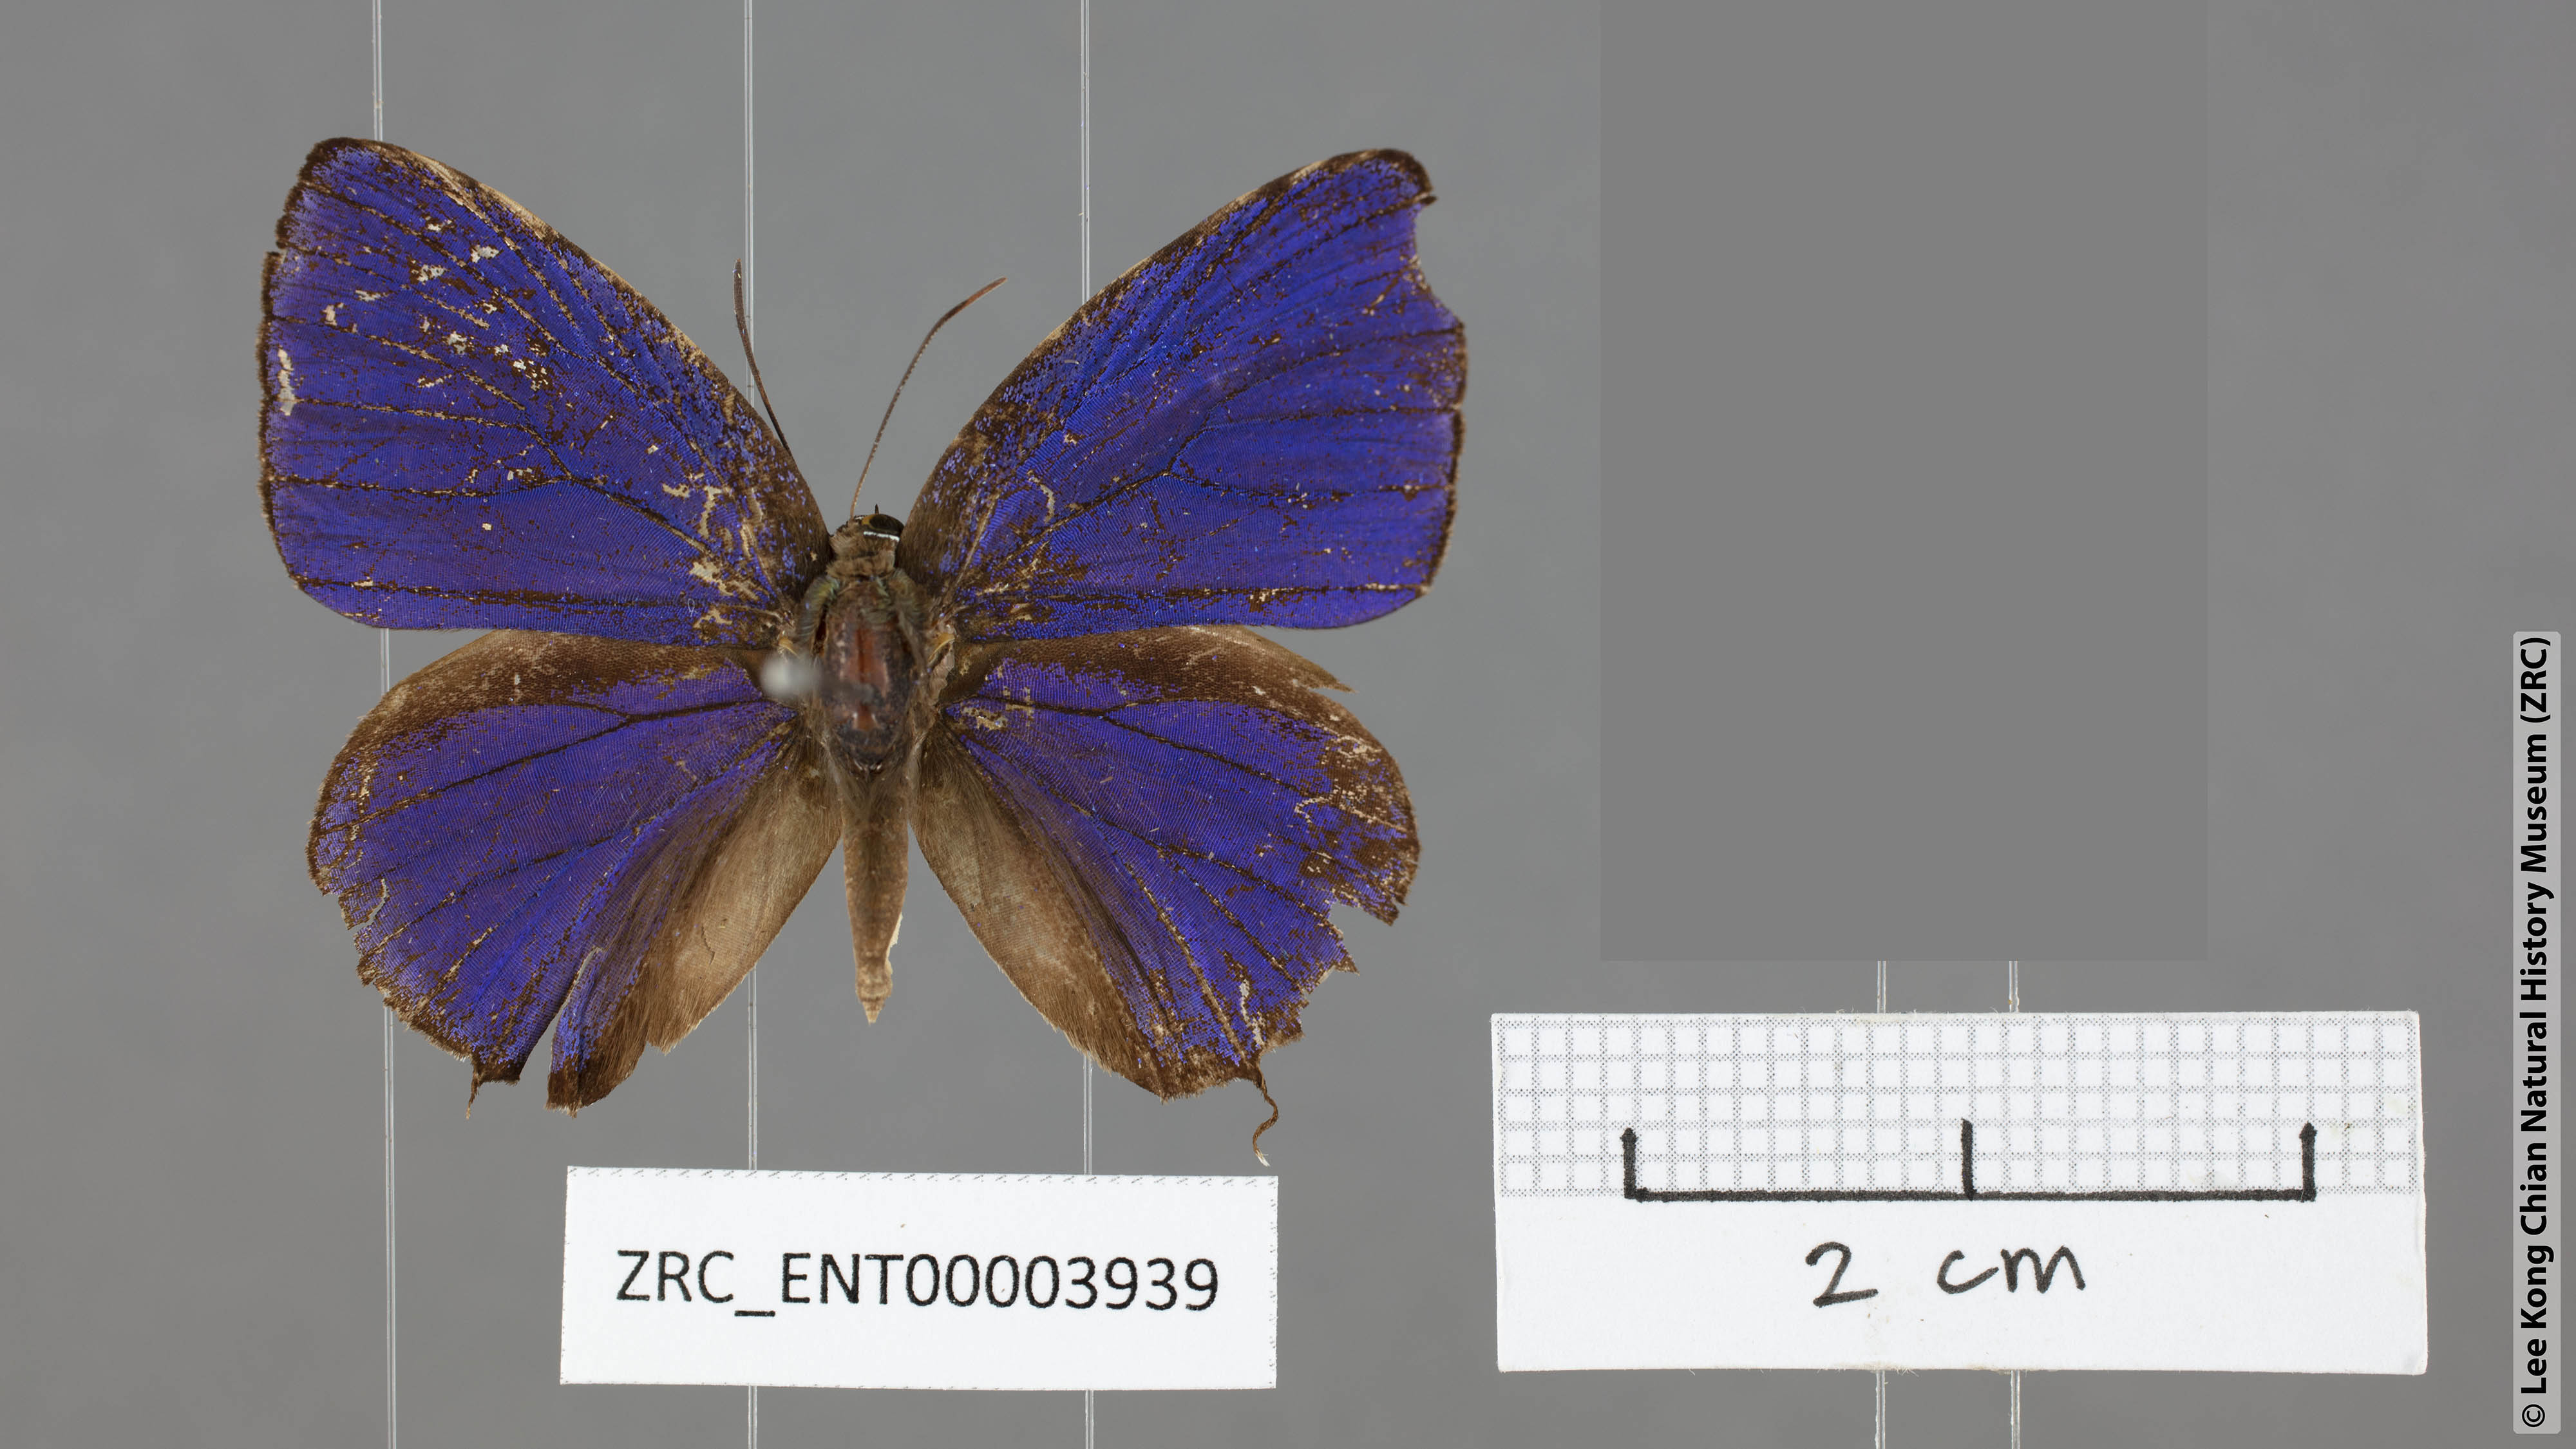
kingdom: Animalia
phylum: Arthropoda
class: Insecta
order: Lepidoptera
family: Lycaenidae
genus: Arhopala
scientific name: Arhopala azinis
